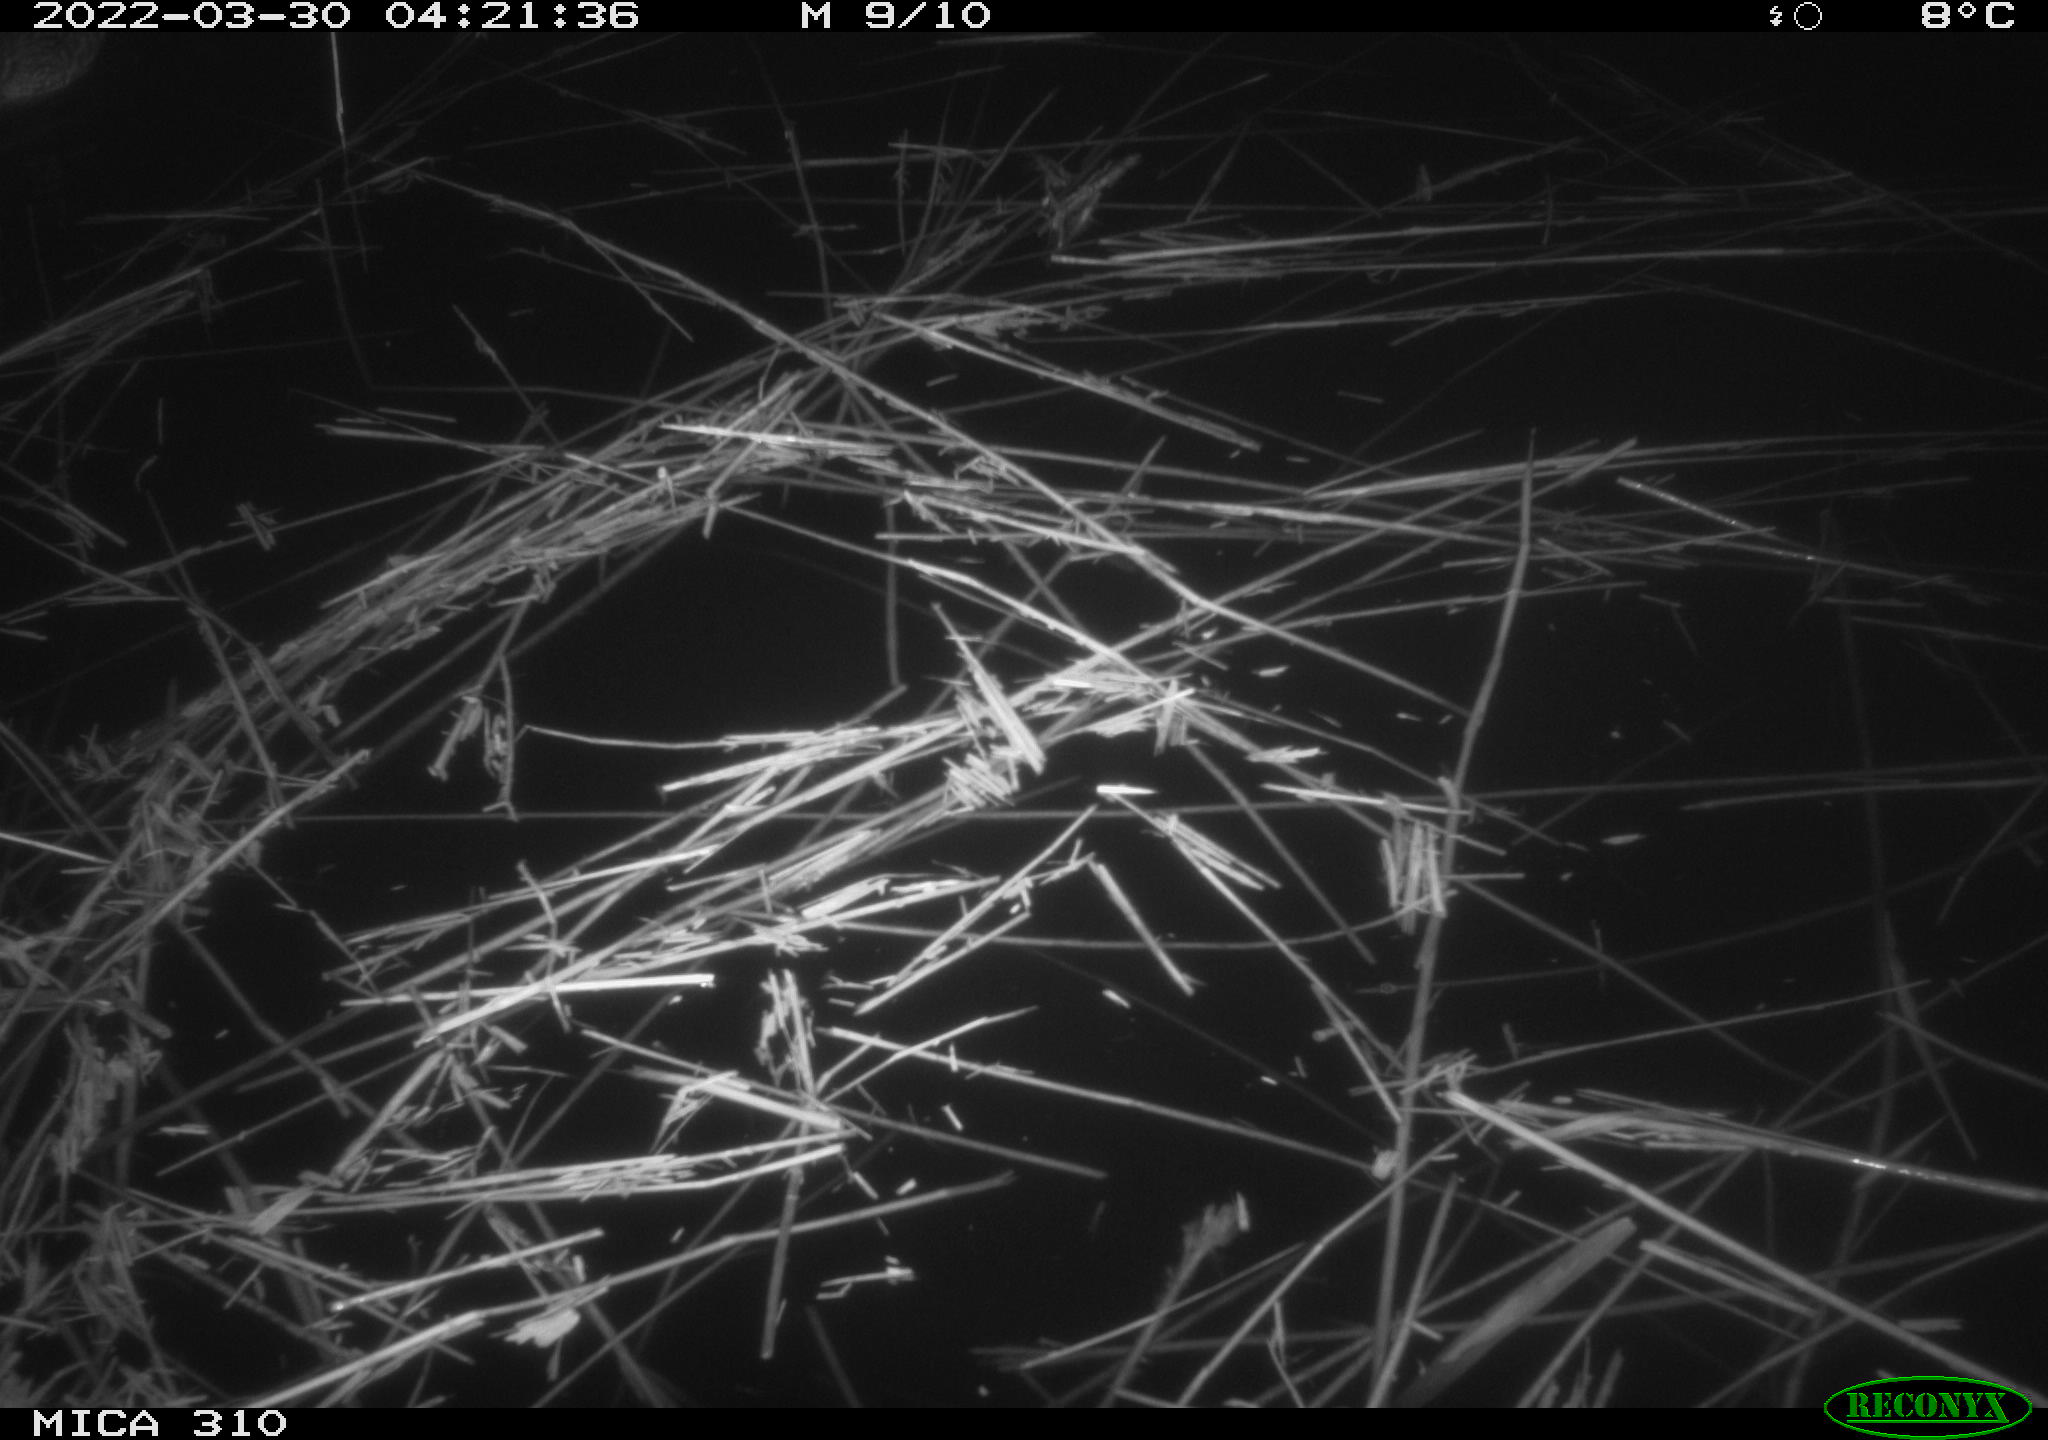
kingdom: Animalia
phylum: Chordata
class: Aves
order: Anseriformes
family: Anatidae
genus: Anas
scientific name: Anas platyrhynchos
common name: Mallard
